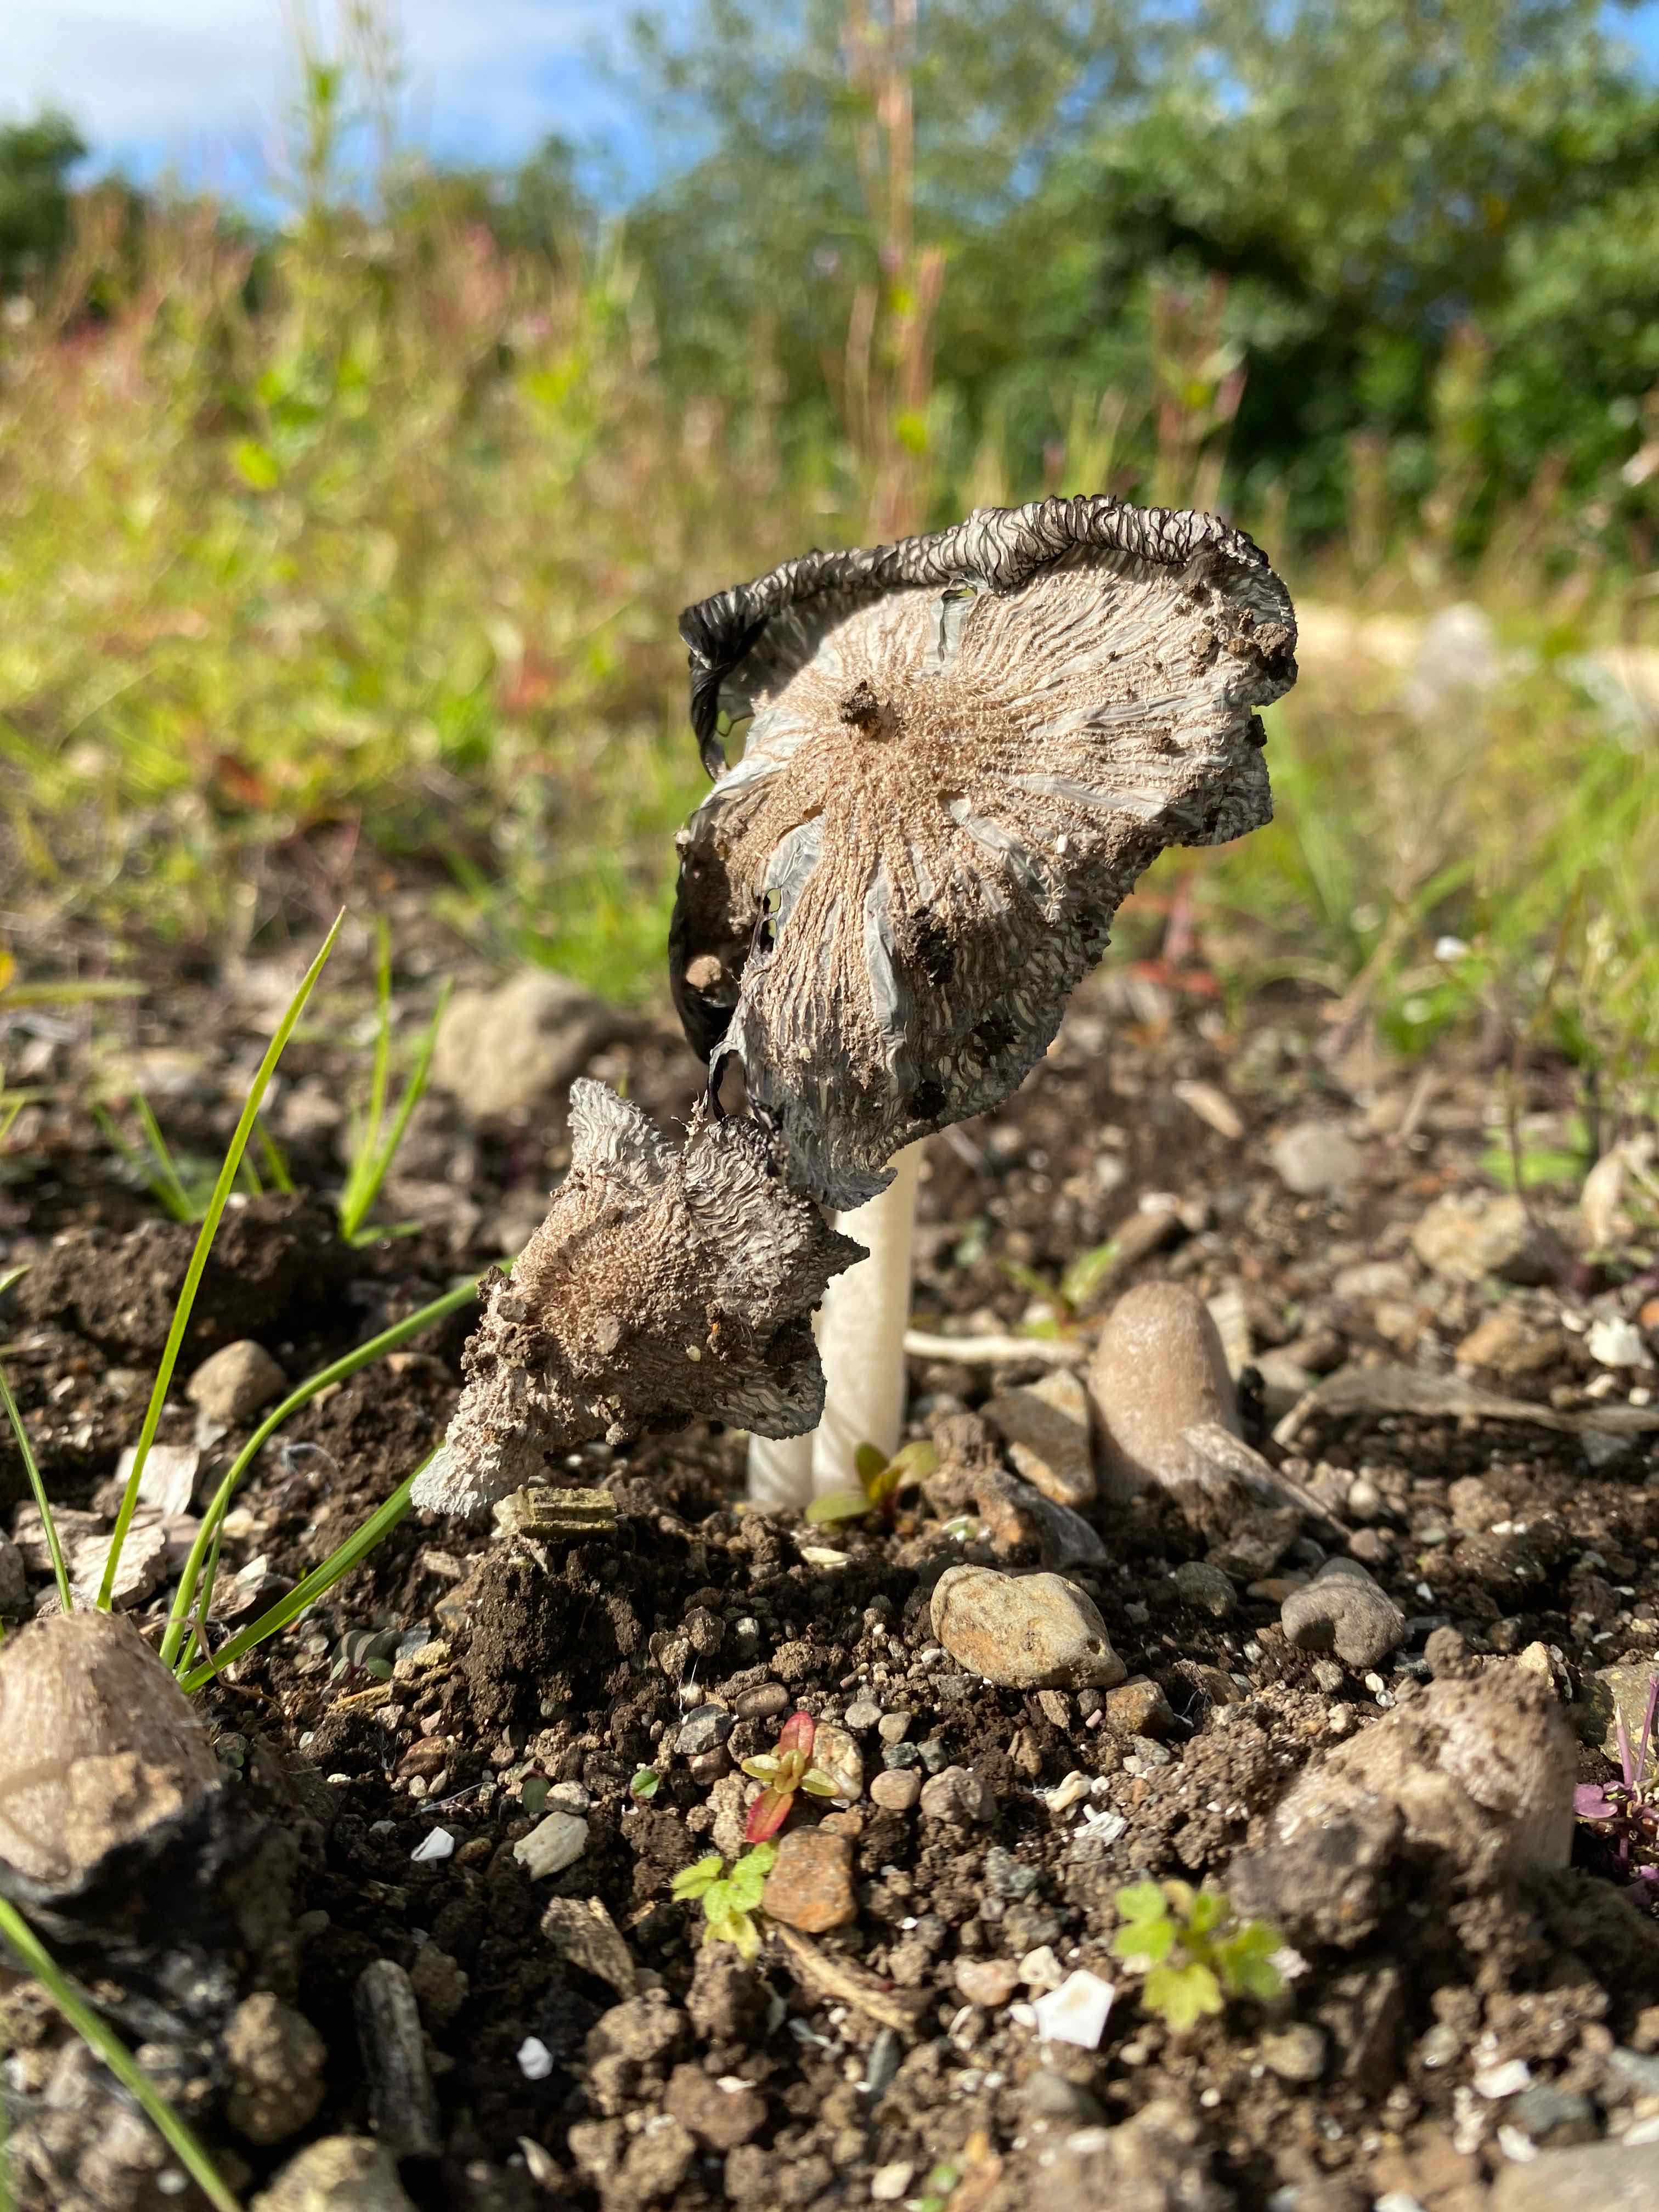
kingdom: Fungi
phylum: Basidiomycota
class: Agaricomycetes
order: Agaricales
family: Psathyrellaceae
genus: Coprinopsis
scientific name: Coprinopsis
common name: blækhat
